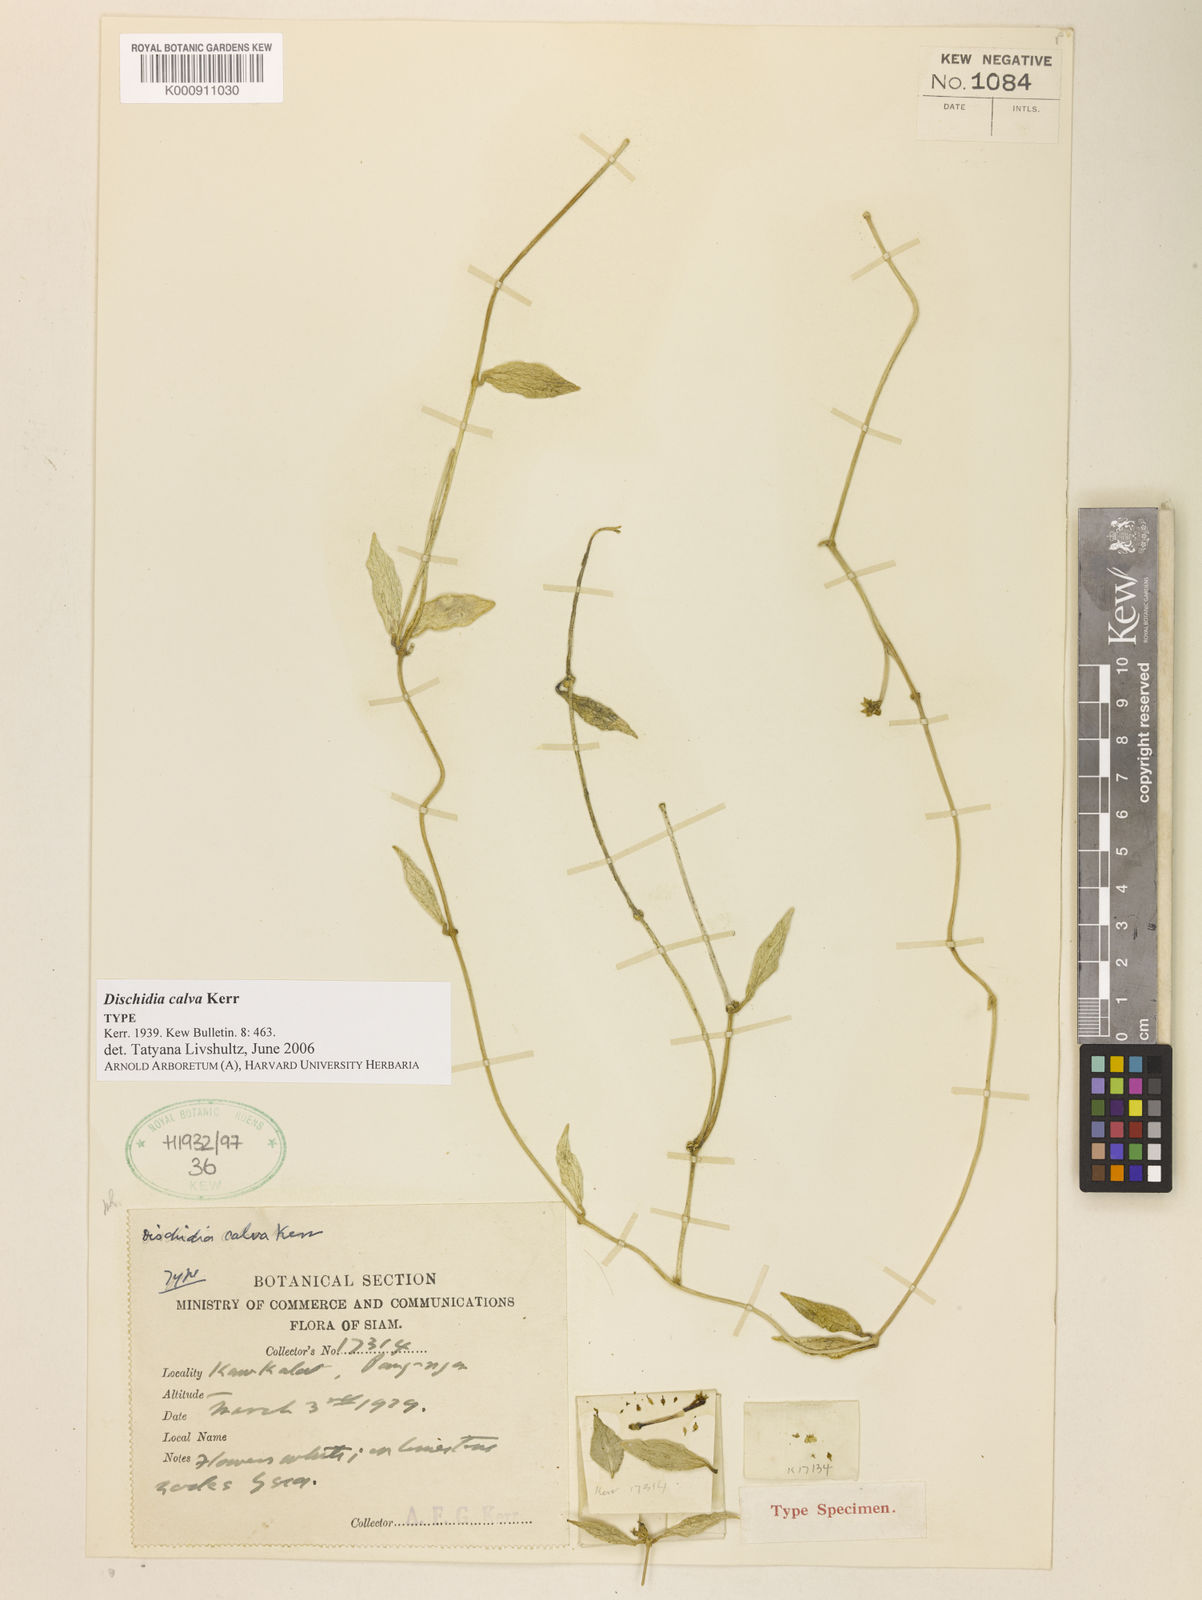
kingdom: Plantae
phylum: Tracheophyta
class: Magnoliopsida
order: Gentianales
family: Apocynaceae
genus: Dischidia
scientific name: Dischidia calva
